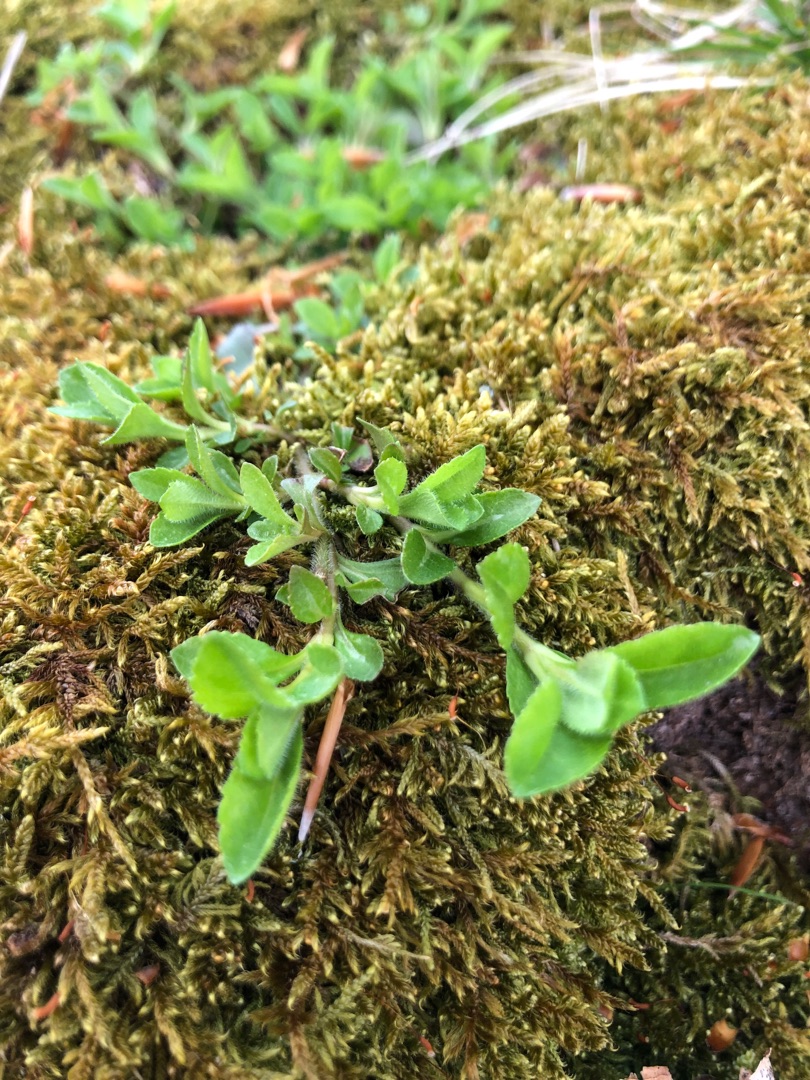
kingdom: Plantae
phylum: Tracheophyta
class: Magnoliopsida
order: Lamiales
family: Plantaginaceae
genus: Veronica
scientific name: Veronica officinalis
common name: Læge-ærenpris
